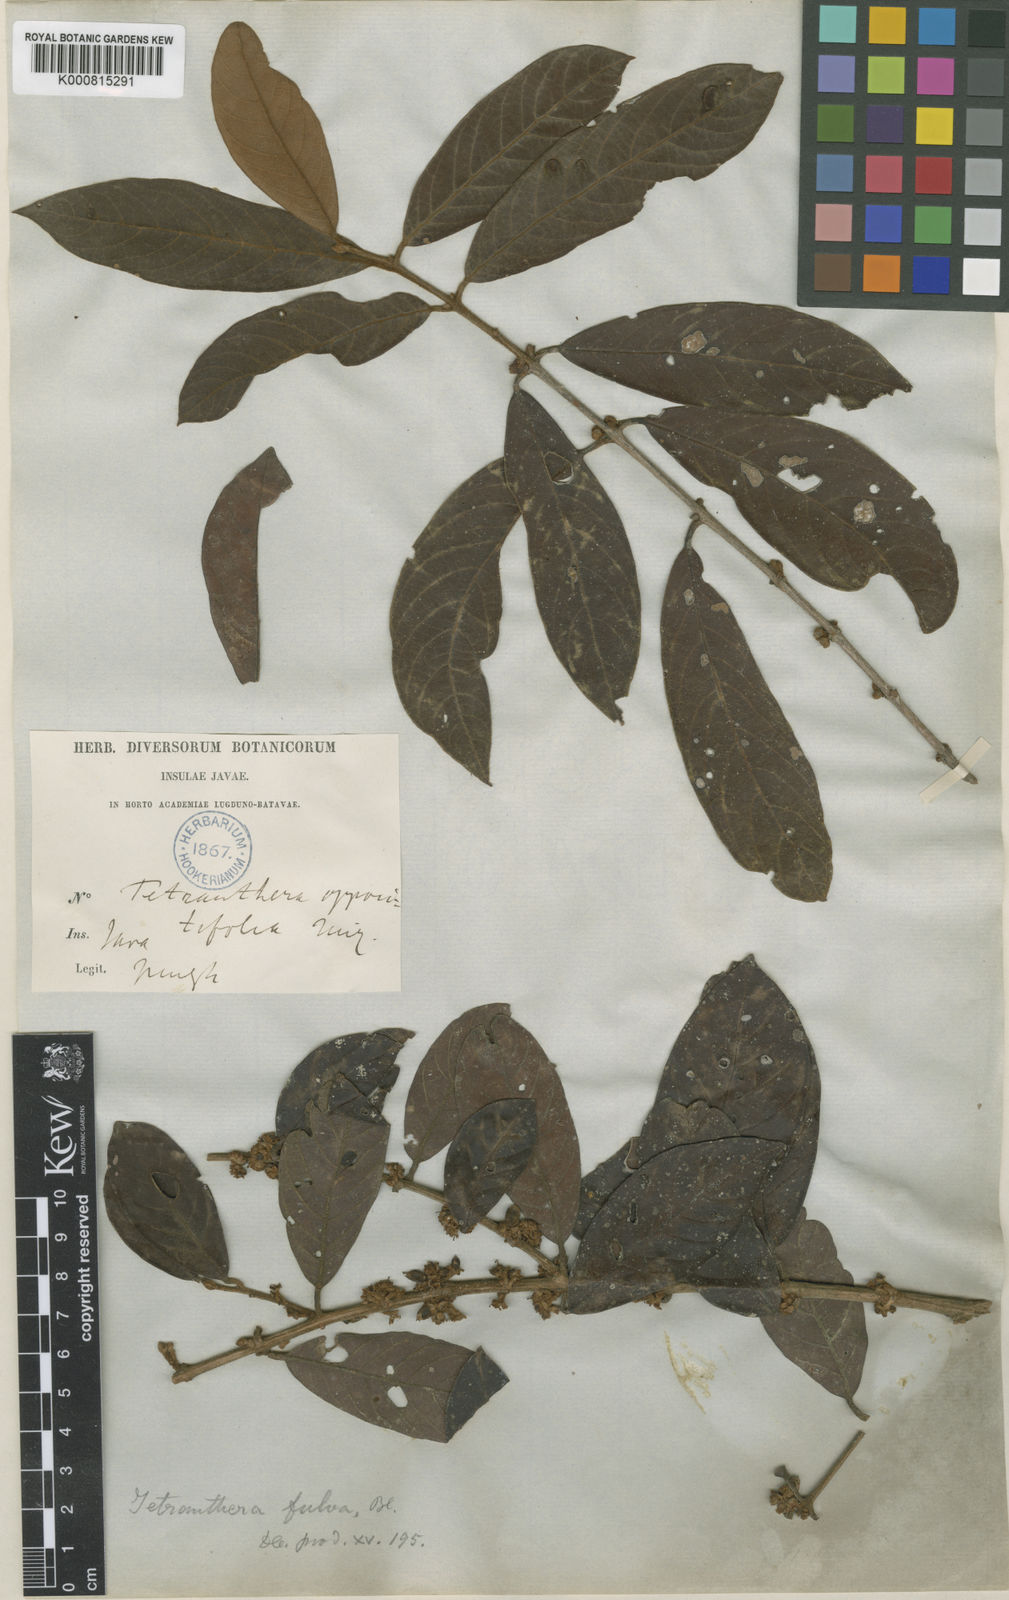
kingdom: Plantae
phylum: Tracheophyta
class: Magnoliopsida
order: Laurales
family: Lauraceae
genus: Litsea
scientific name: Litsea oppositifolia
